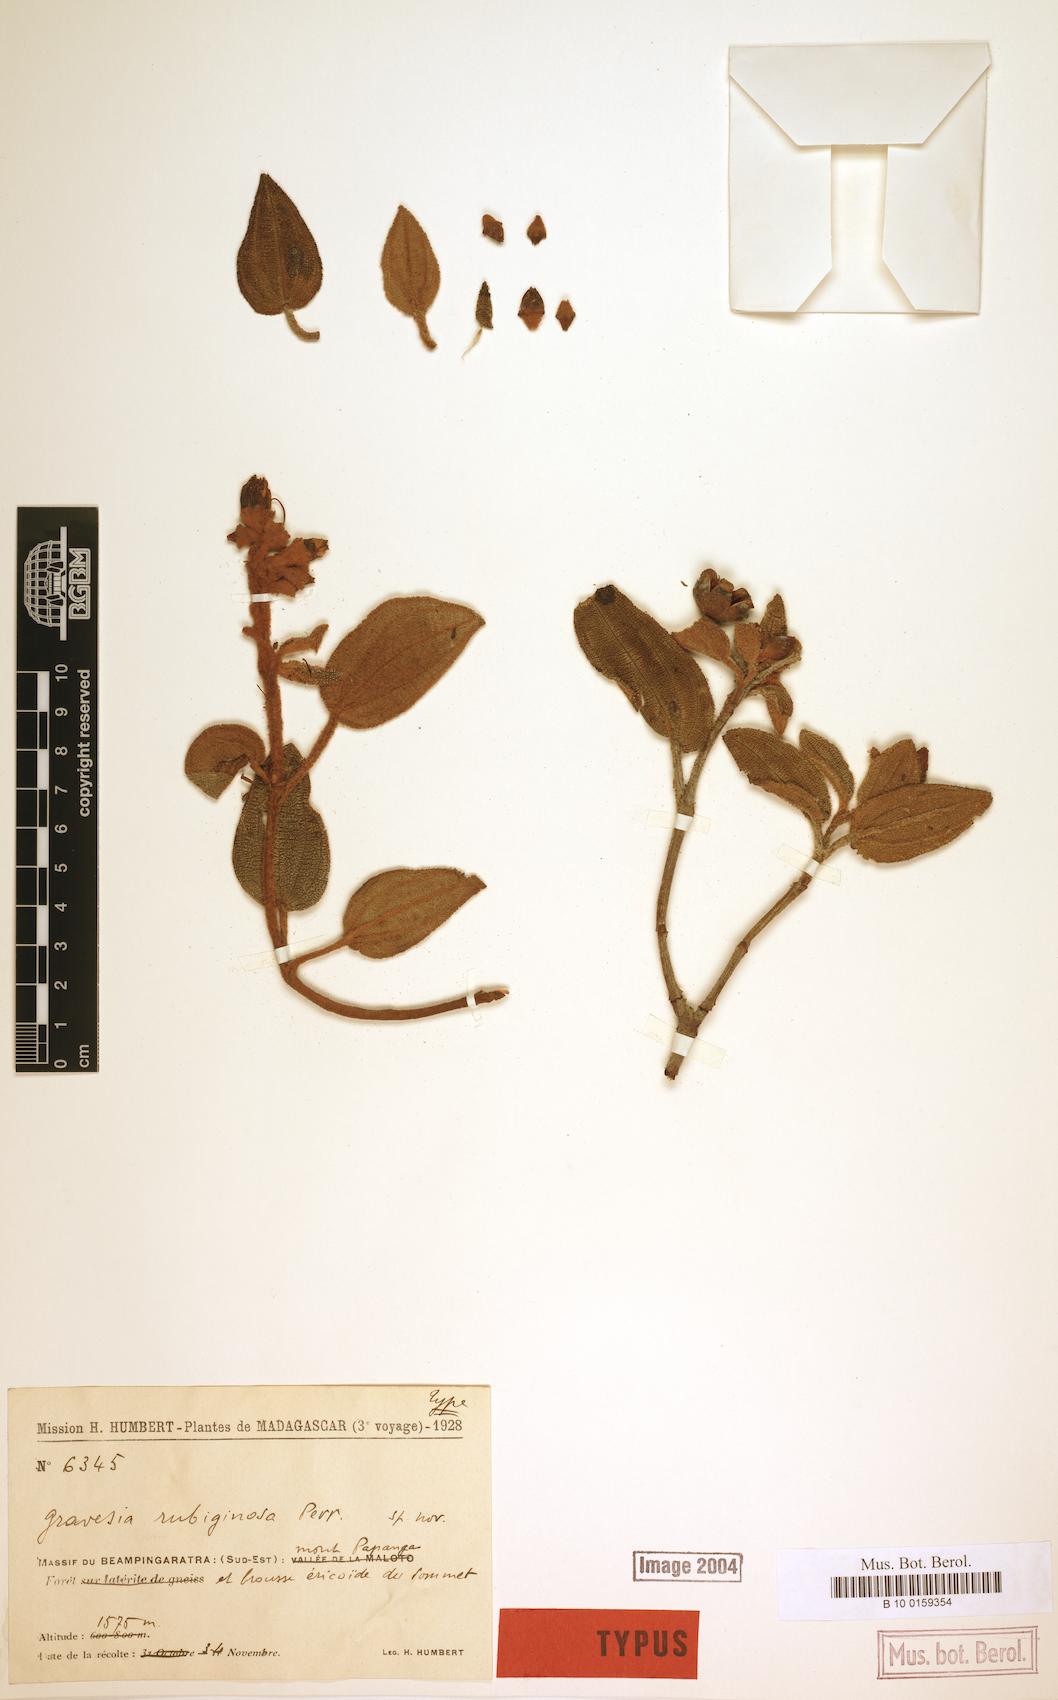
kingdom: Plantae
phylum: Tracheophyta
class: Magnoliopsida
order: Myrtales
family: Melastomataceae
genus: Gravesia
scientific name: Gravesia rubiginosa
